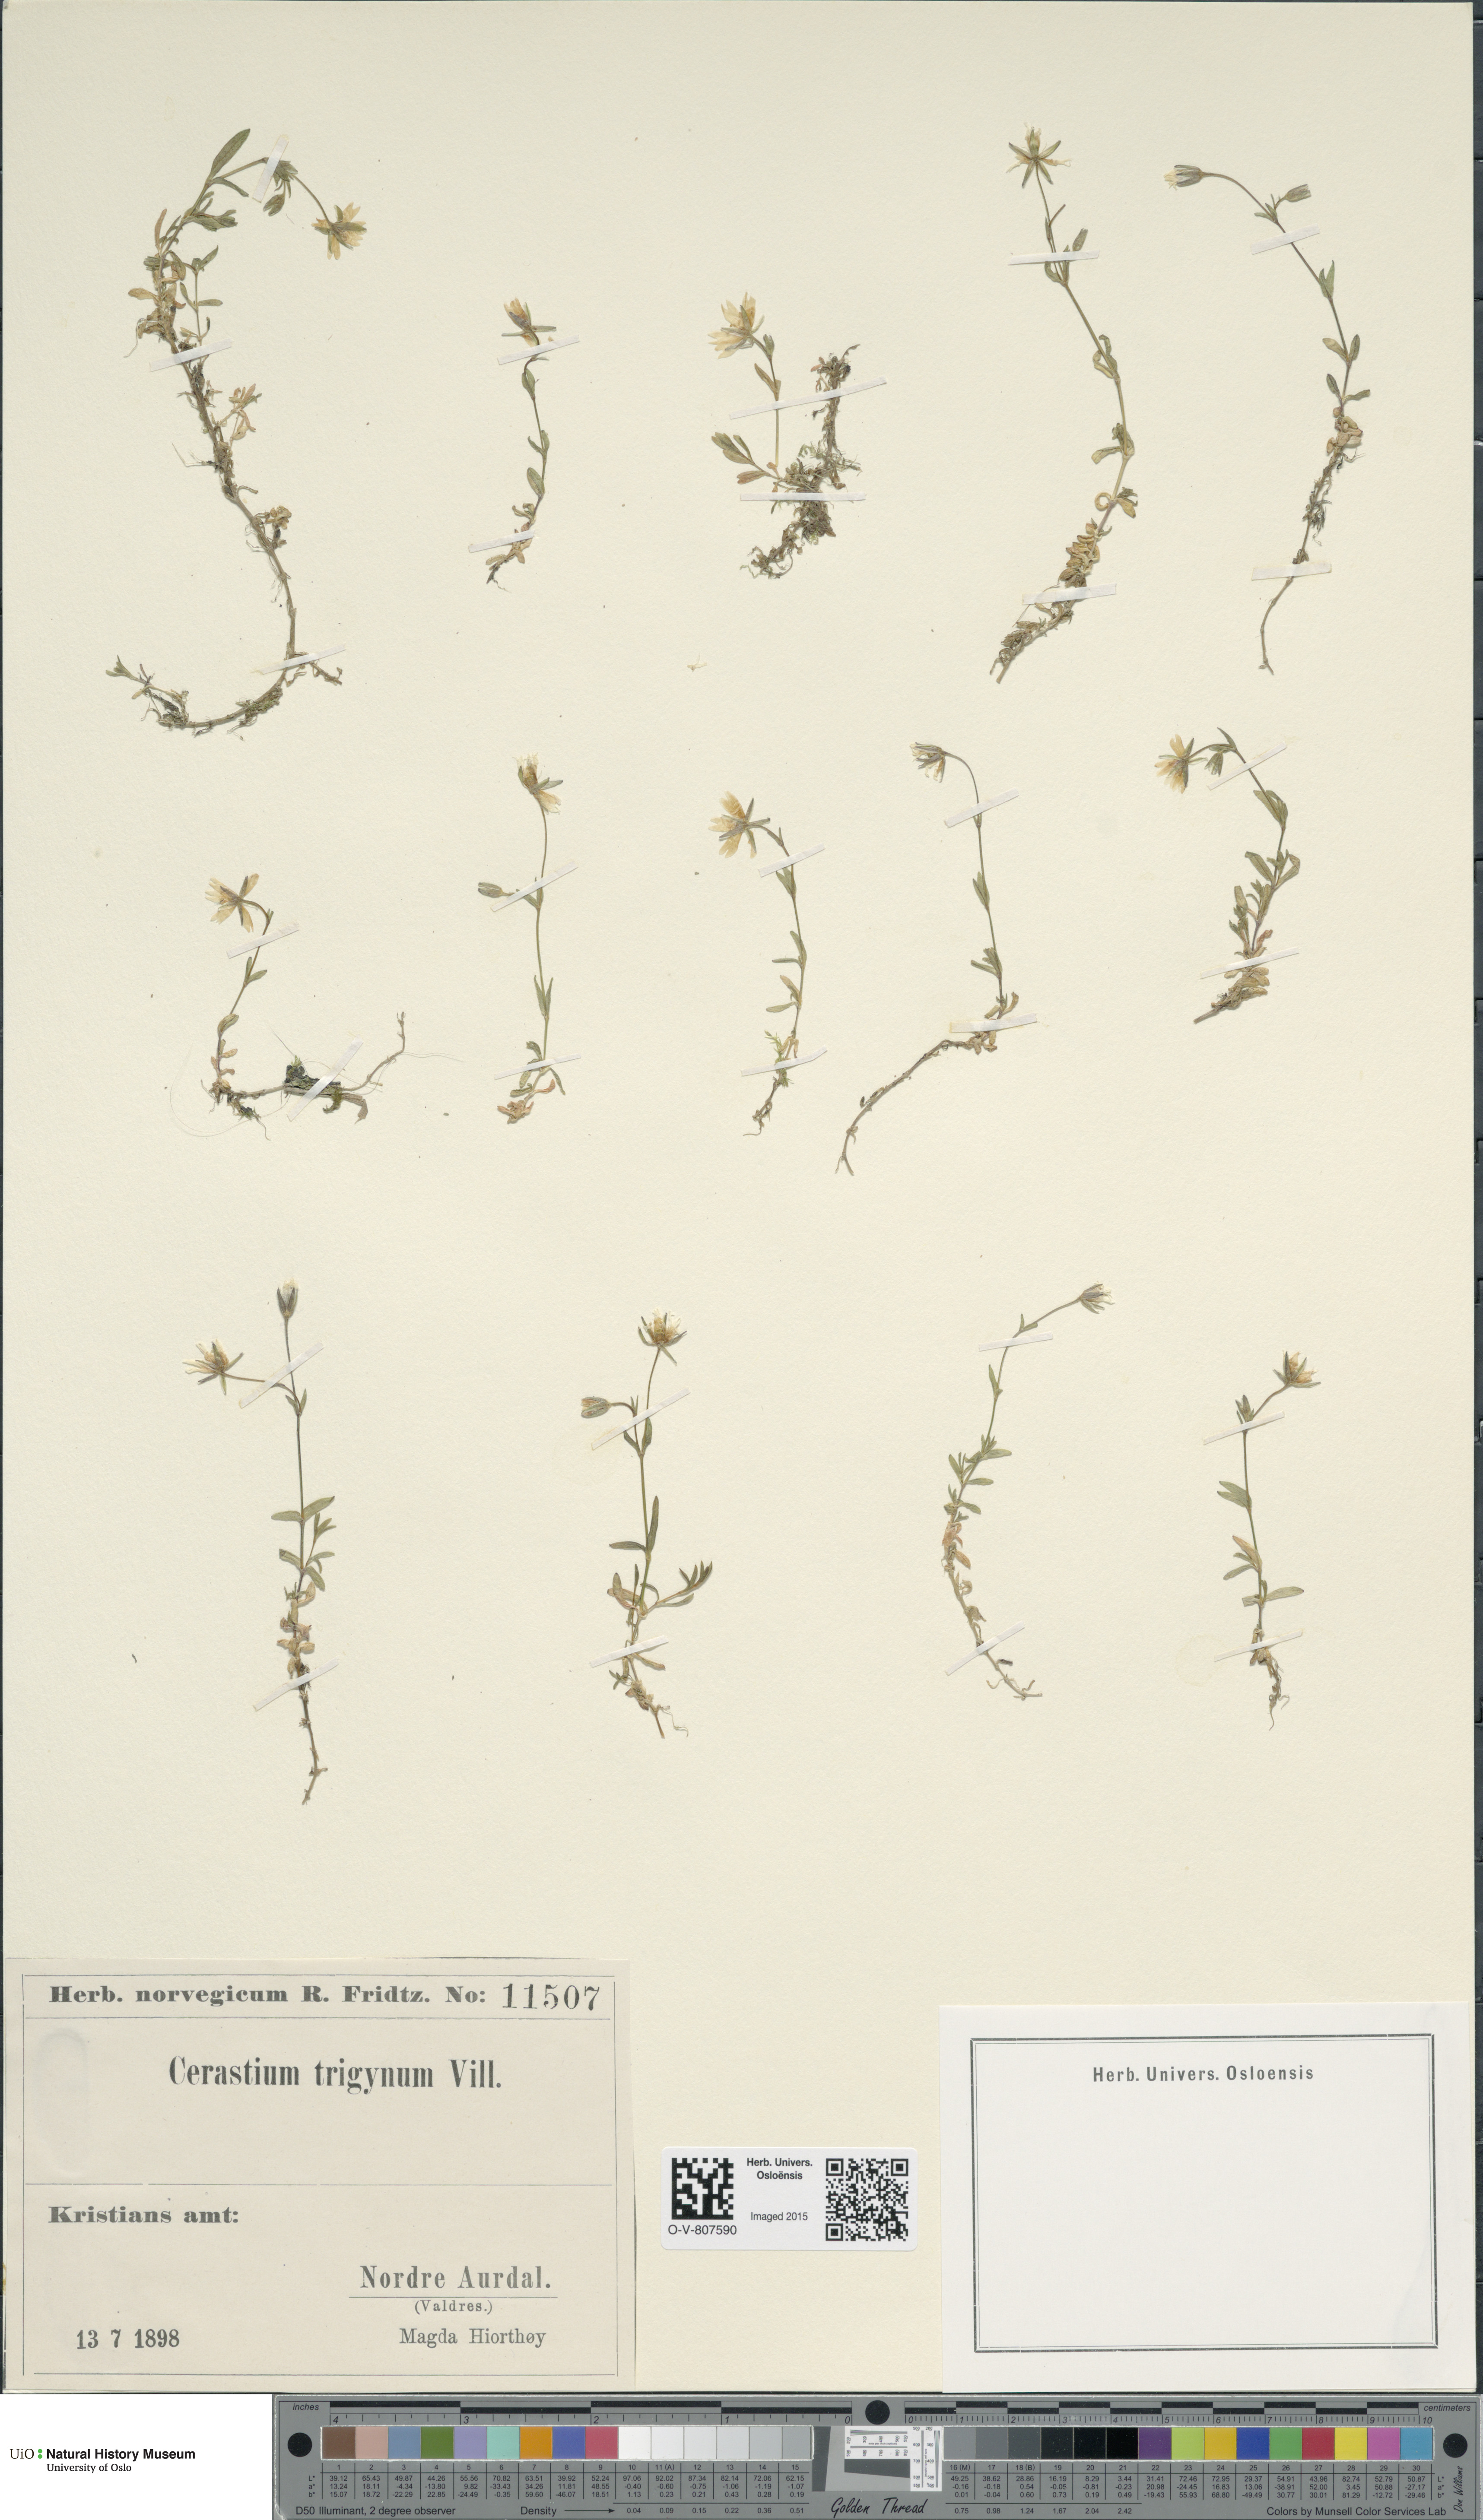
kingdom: Plantae
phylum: Tracheophyta
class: Magnoliopsida
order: Caryophyllales
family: Caryophyllaceae
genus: Dichodon
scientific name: Dichodon cerastoides
